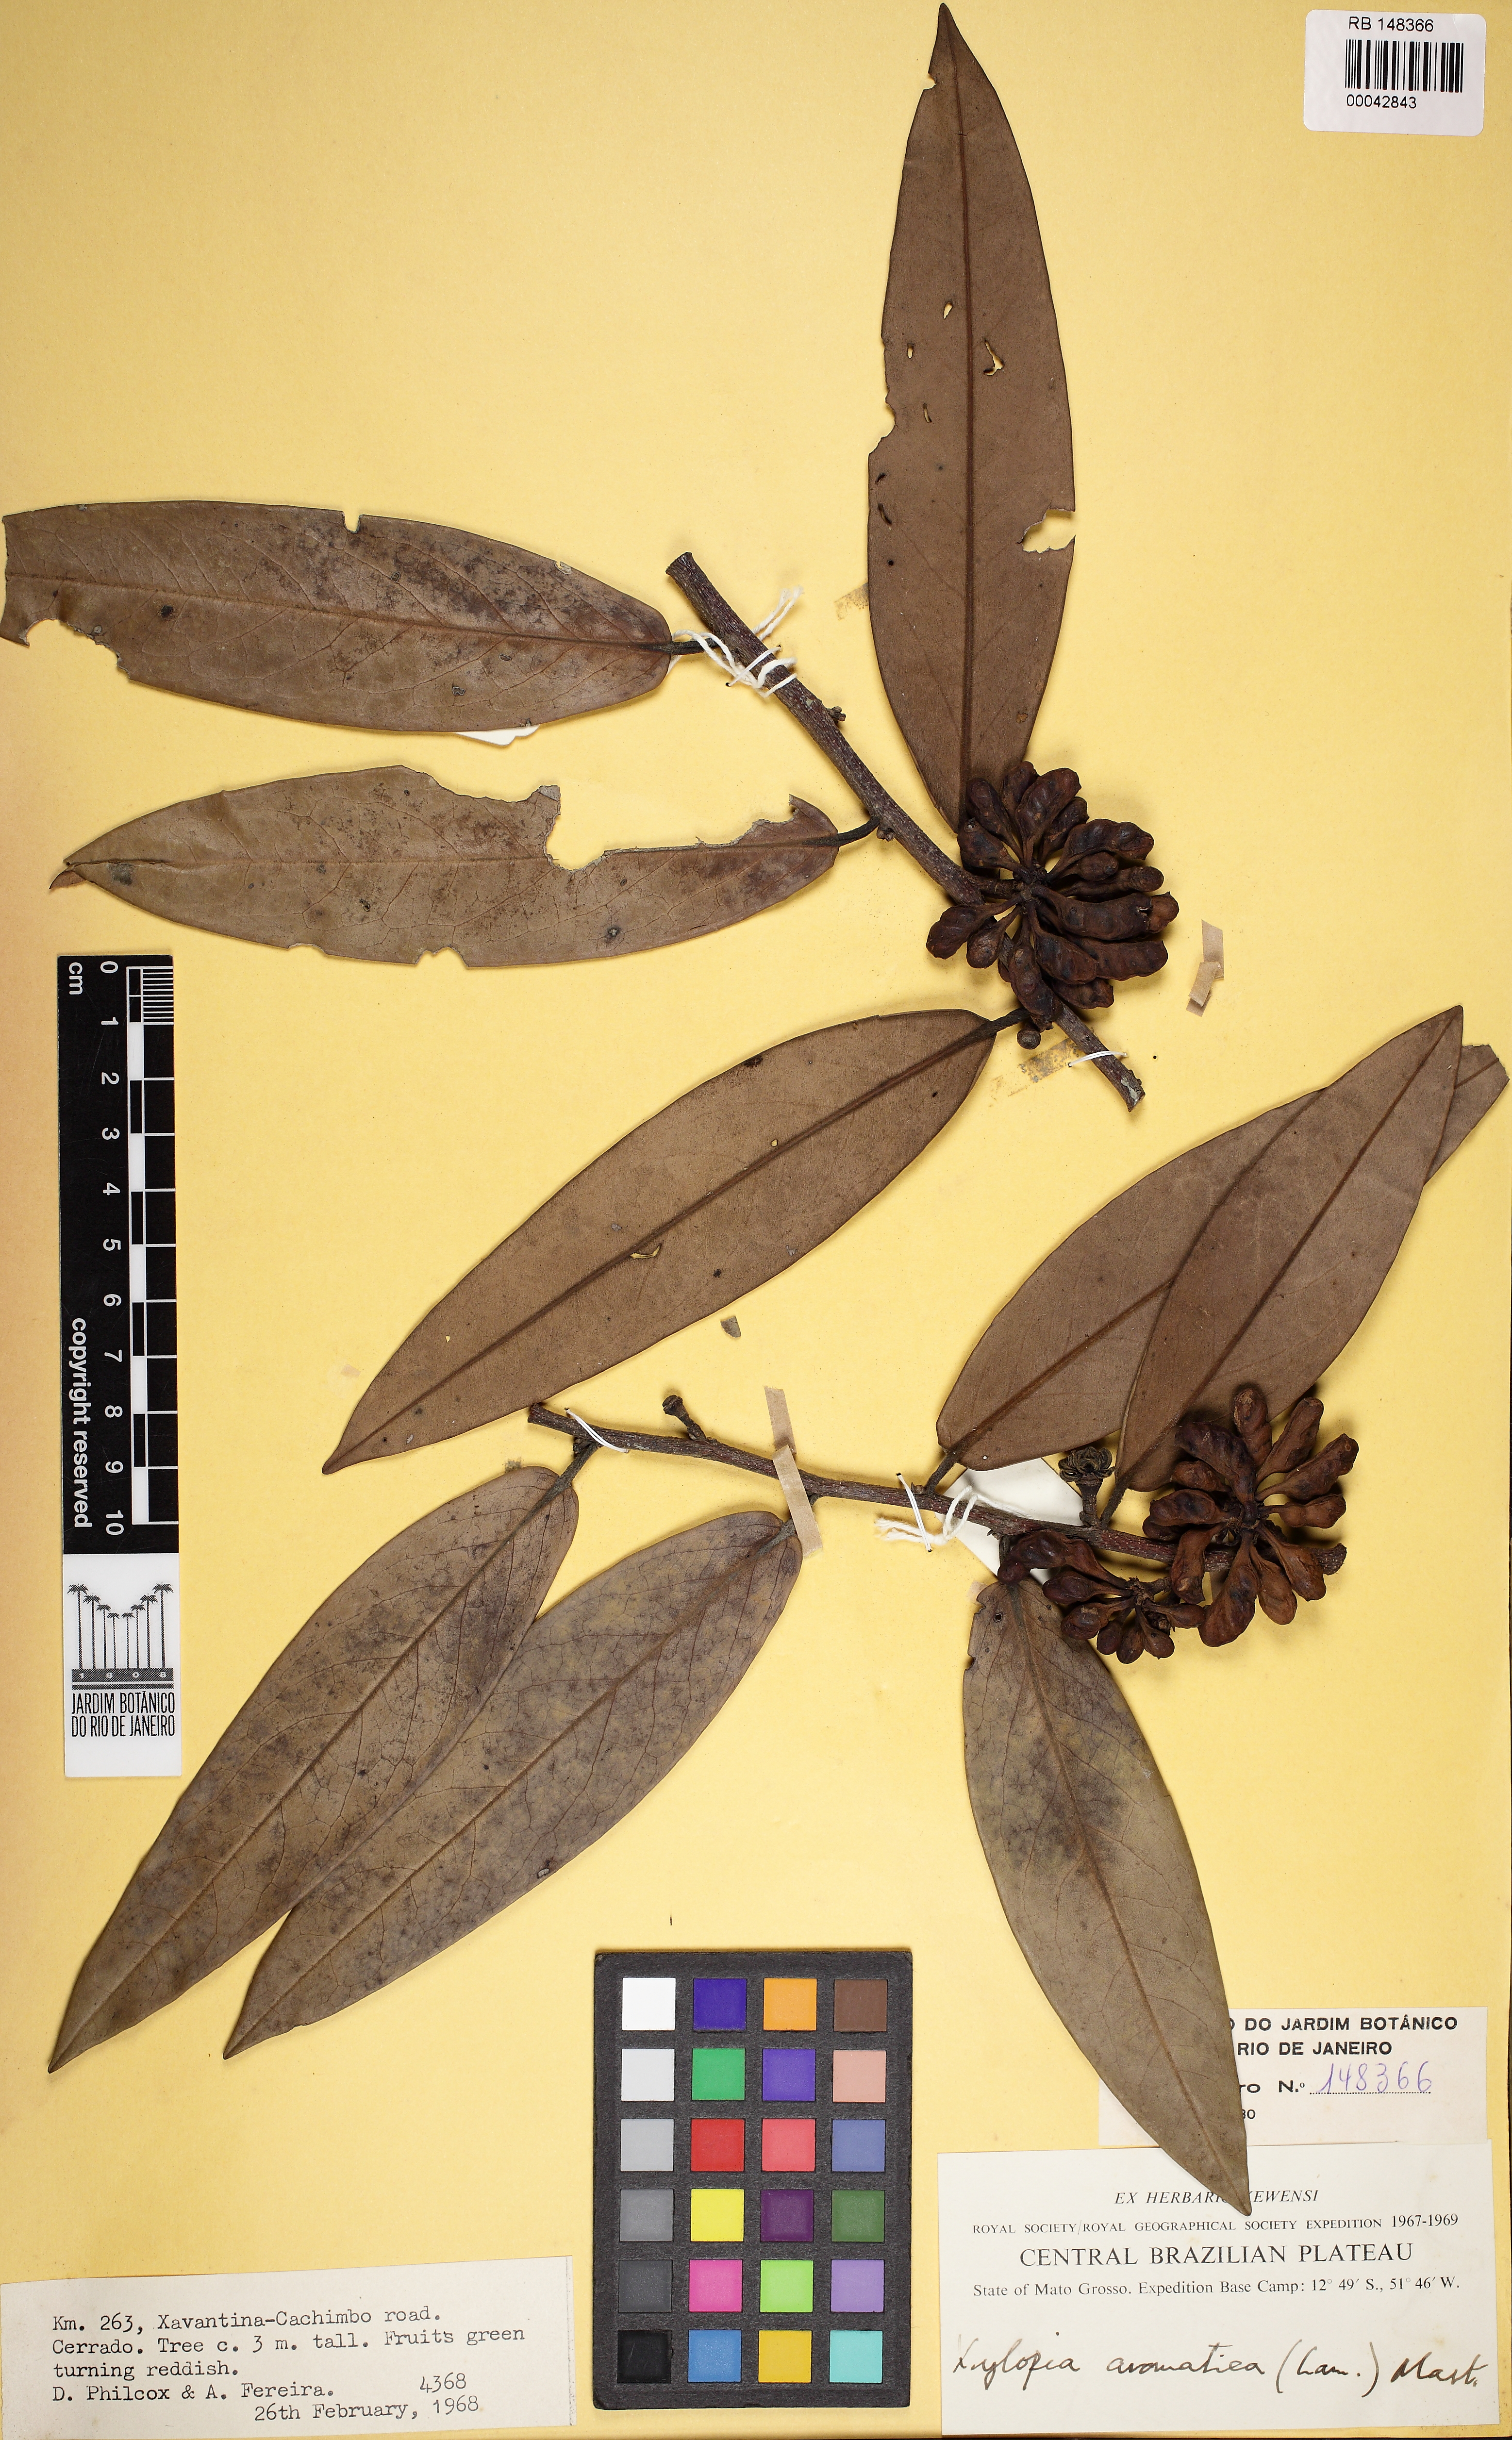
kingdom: Plantae
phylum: Tracheophyta
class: Magnoliopsida
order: Magnoliales
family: Annonaceae
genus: Xylopia
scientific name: Xylopia aromatica
